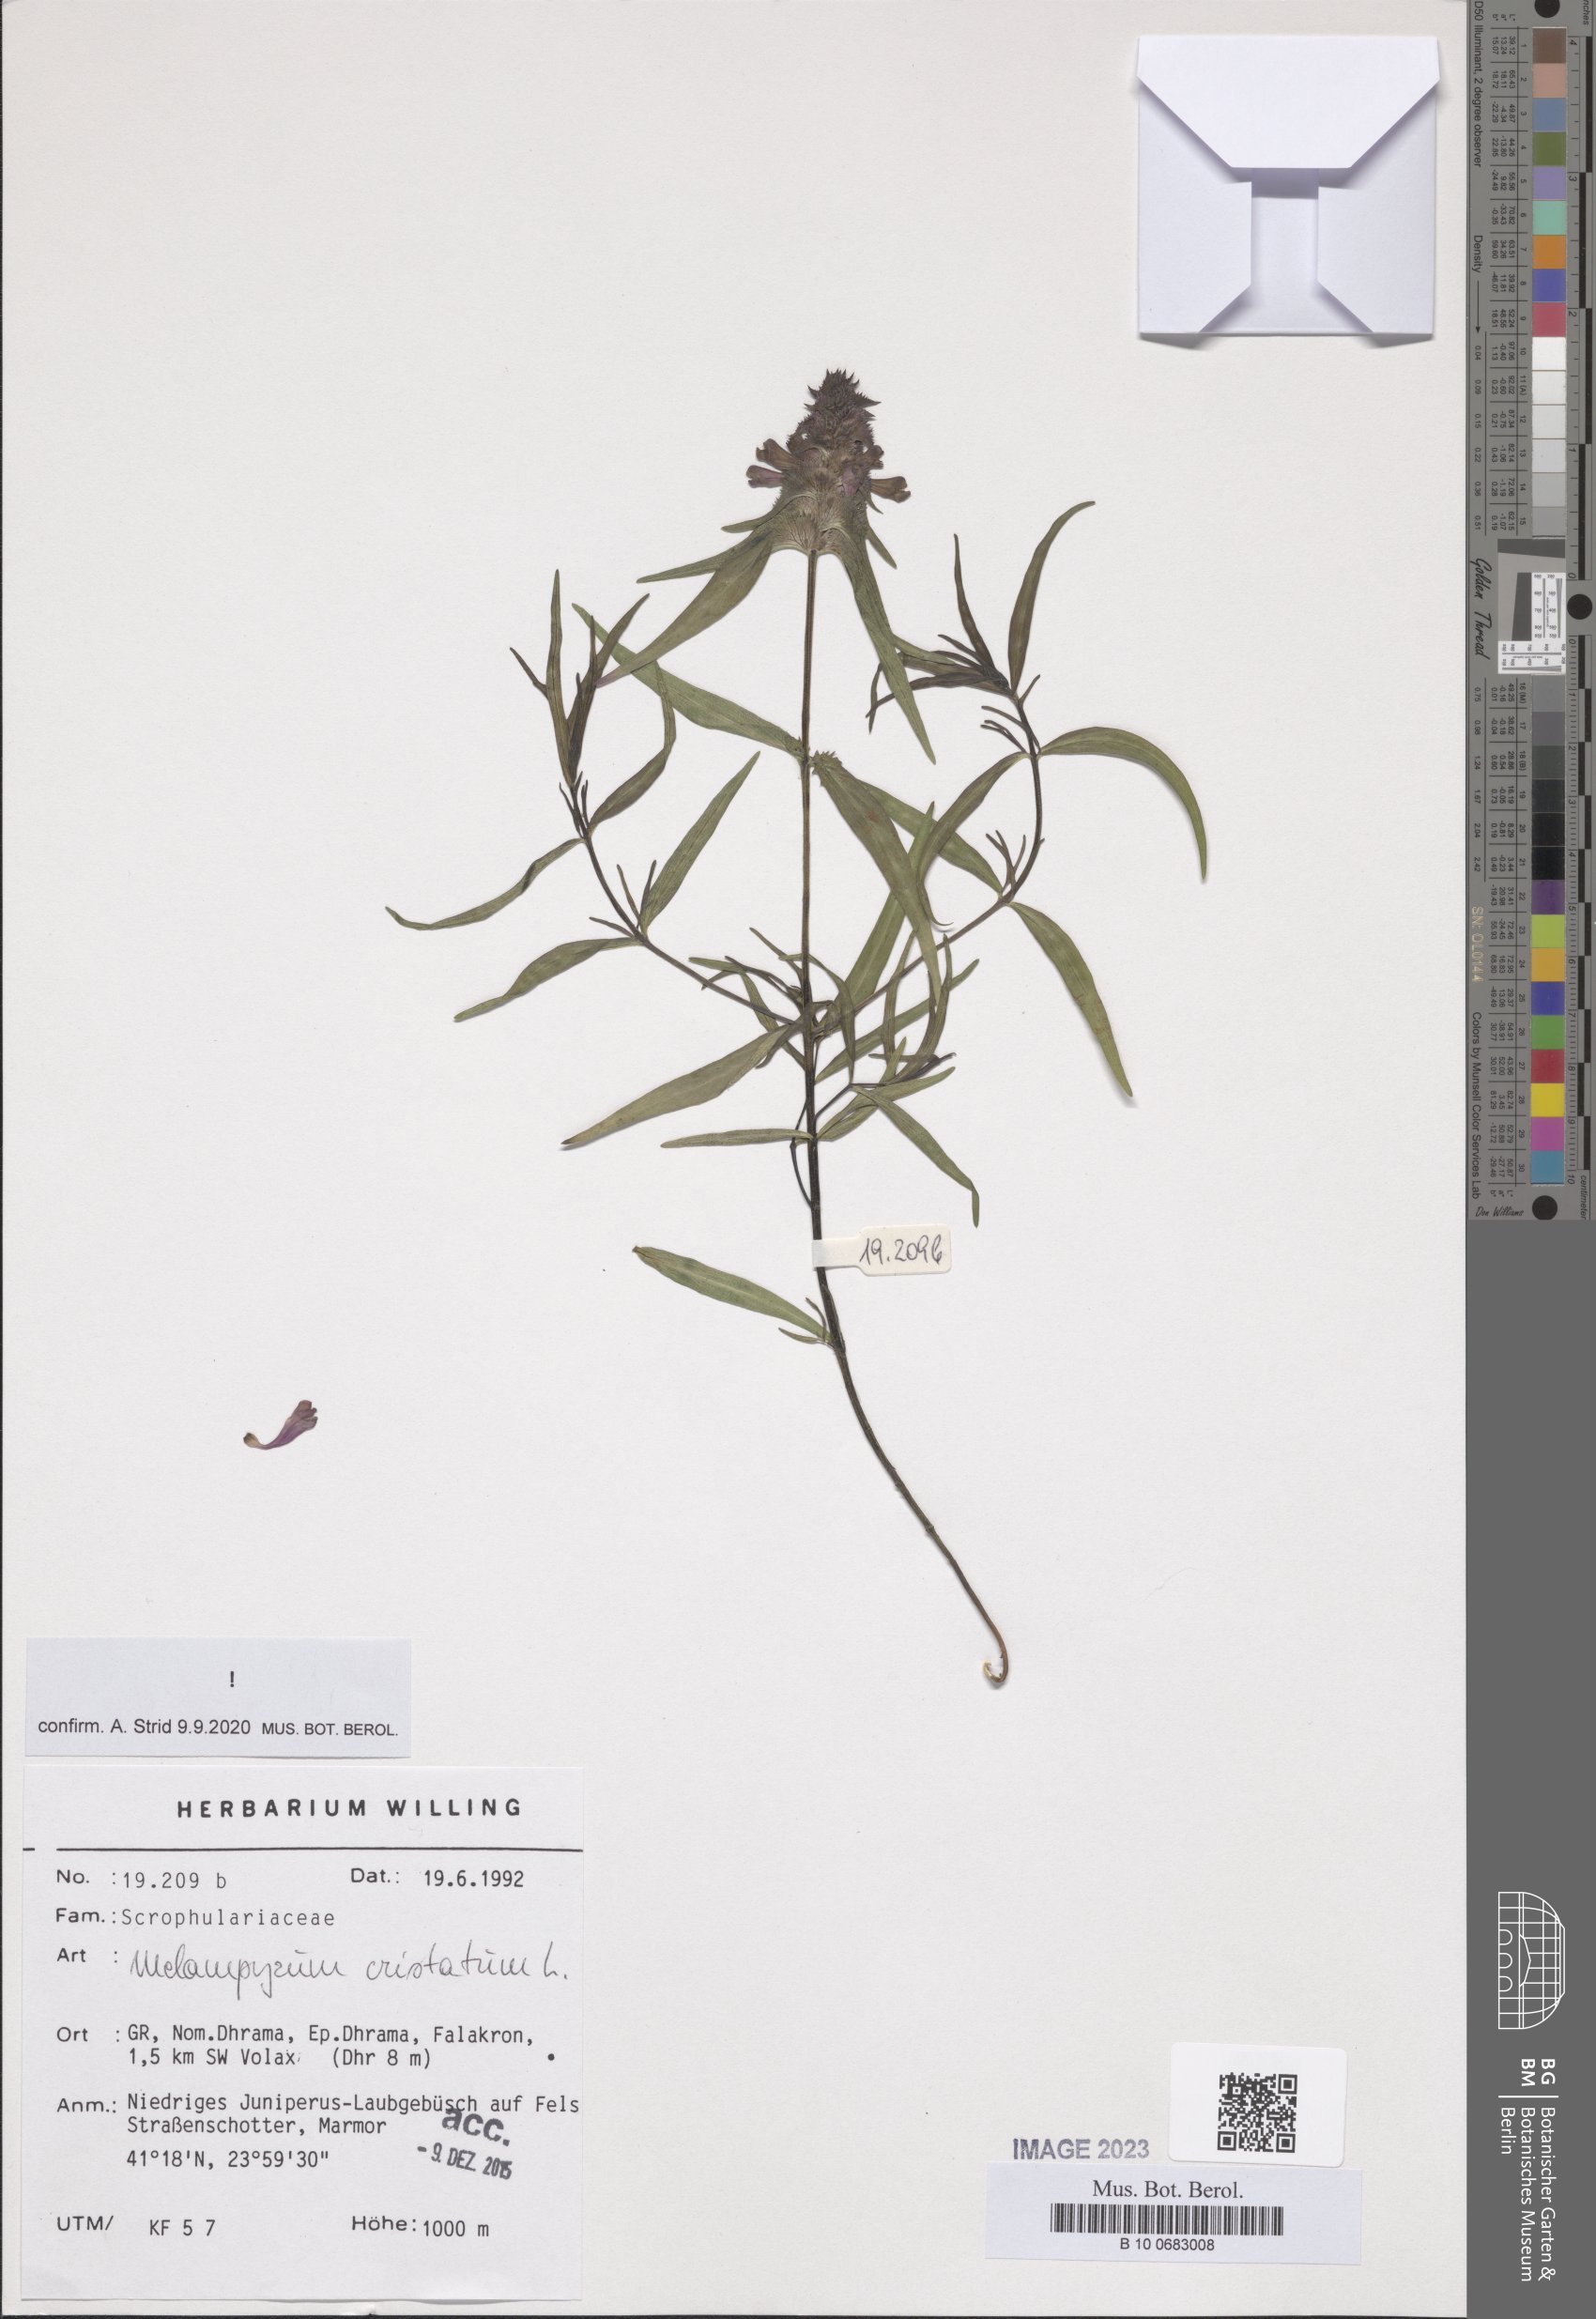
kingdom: Plantae
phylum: Tracheophyta
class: Magnoliopsida
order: Lamiales
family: Orobanchaceae
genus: Melampyrum
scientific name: Melampyrum cristatum
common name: Crested cow-wheat
